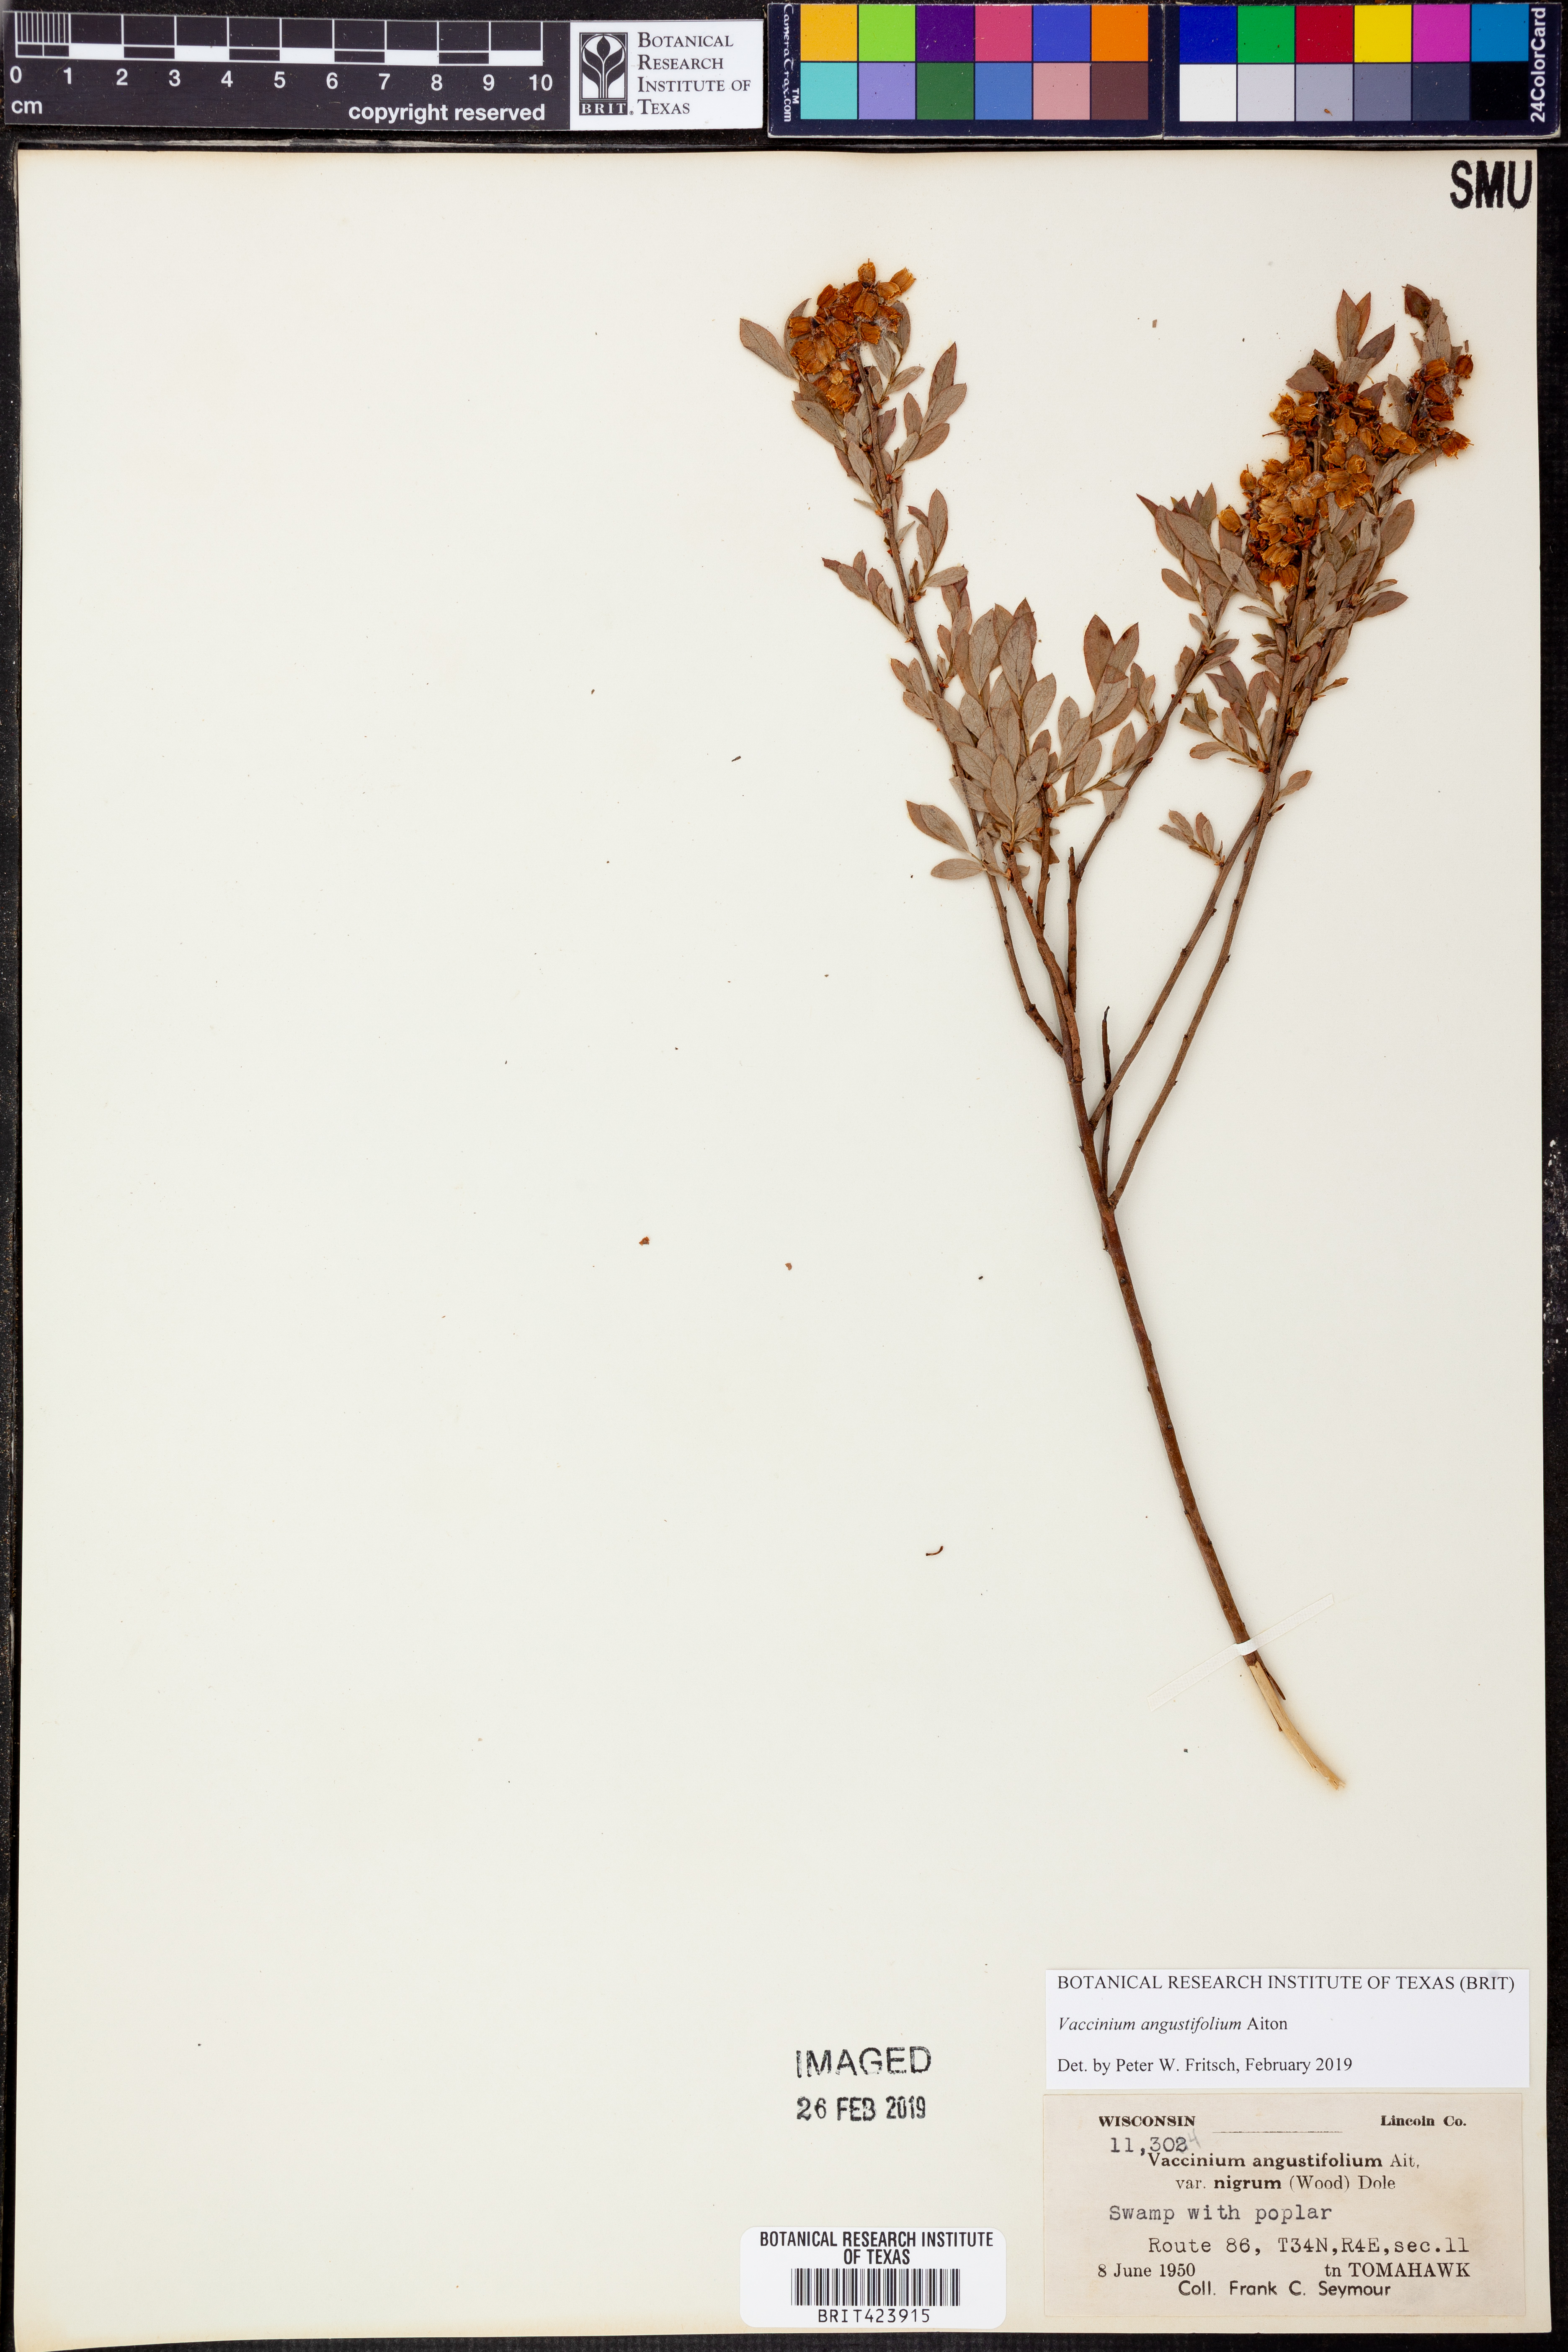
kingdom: Plantae
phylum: Tracheophyta
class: Magnoliopsida
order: Ericales
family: Ericaceae
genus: Vaccinium
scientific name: Vaccinium angustifolium
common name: Early lowbush blueberry
